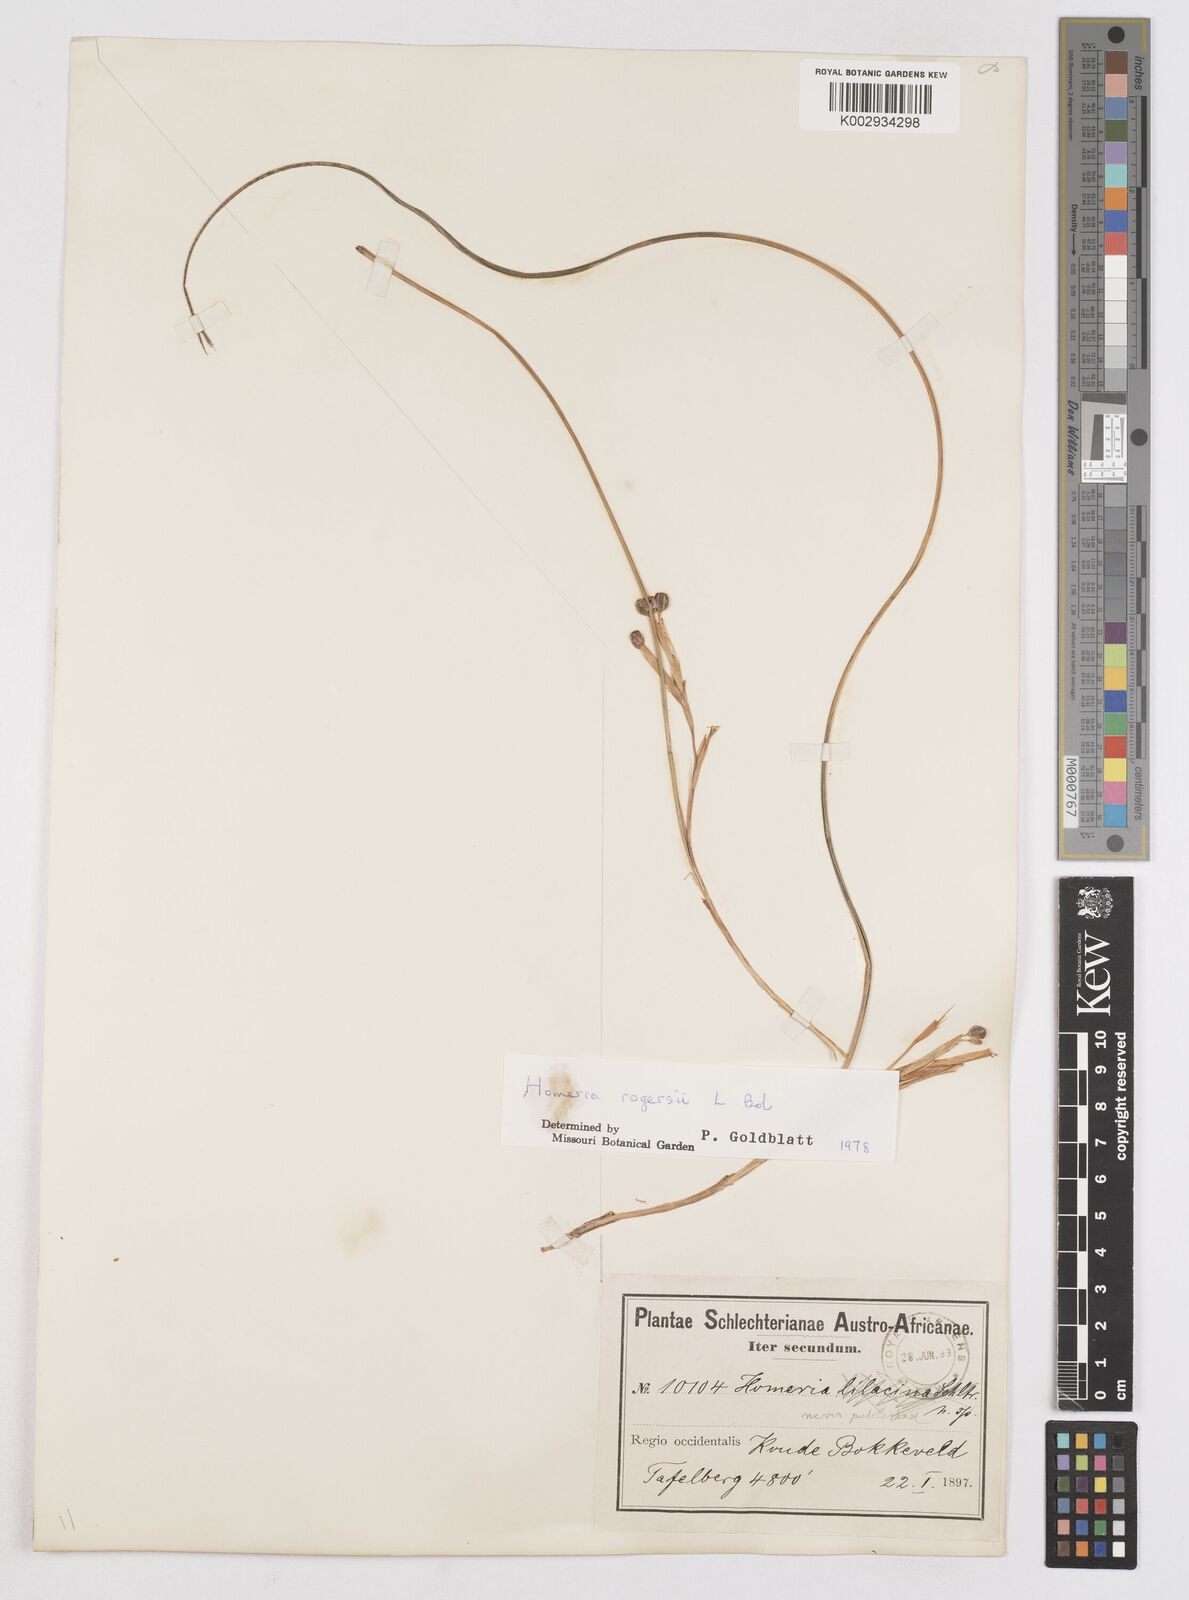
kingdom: Plantae
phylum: Tracheophyta
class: Liliopsida
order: Asparagales
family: Iridaceae
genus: Moraea
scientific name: Moraea crispa
